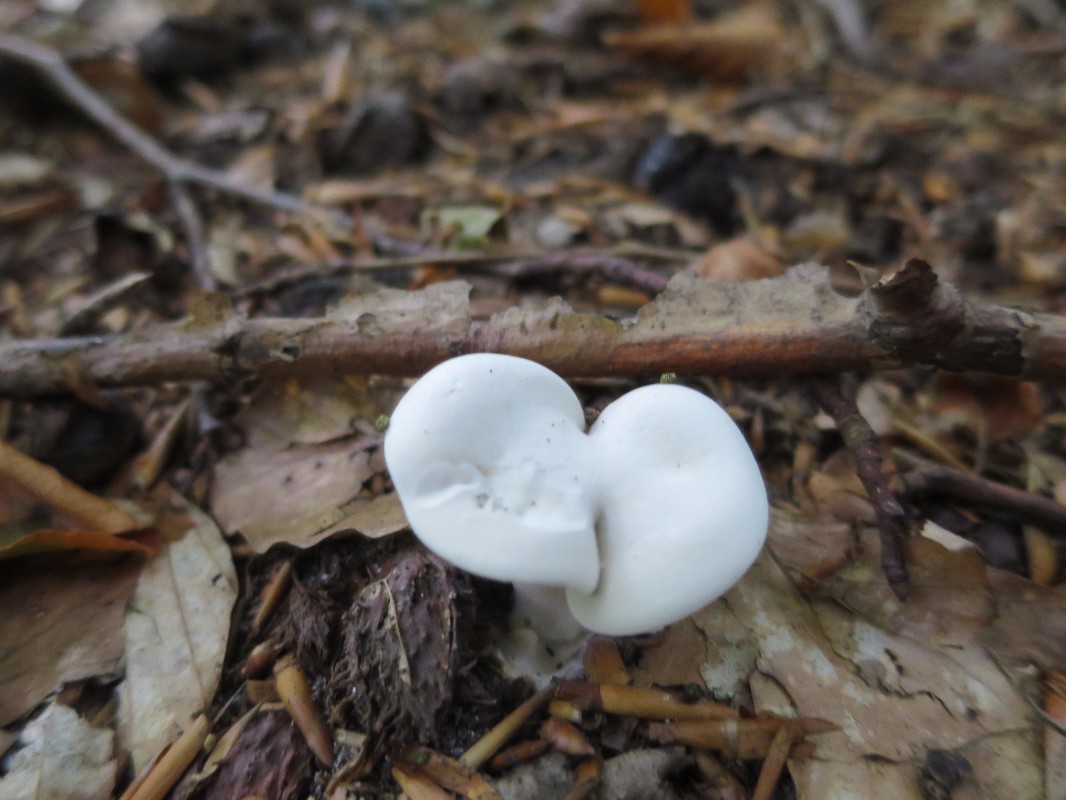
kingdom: Fungi
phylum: Basidiomycota
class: Agaricomycetes
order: Agaricales
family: Entolomataceae
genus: Clitopilus
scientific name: Clitopilus prunulus
